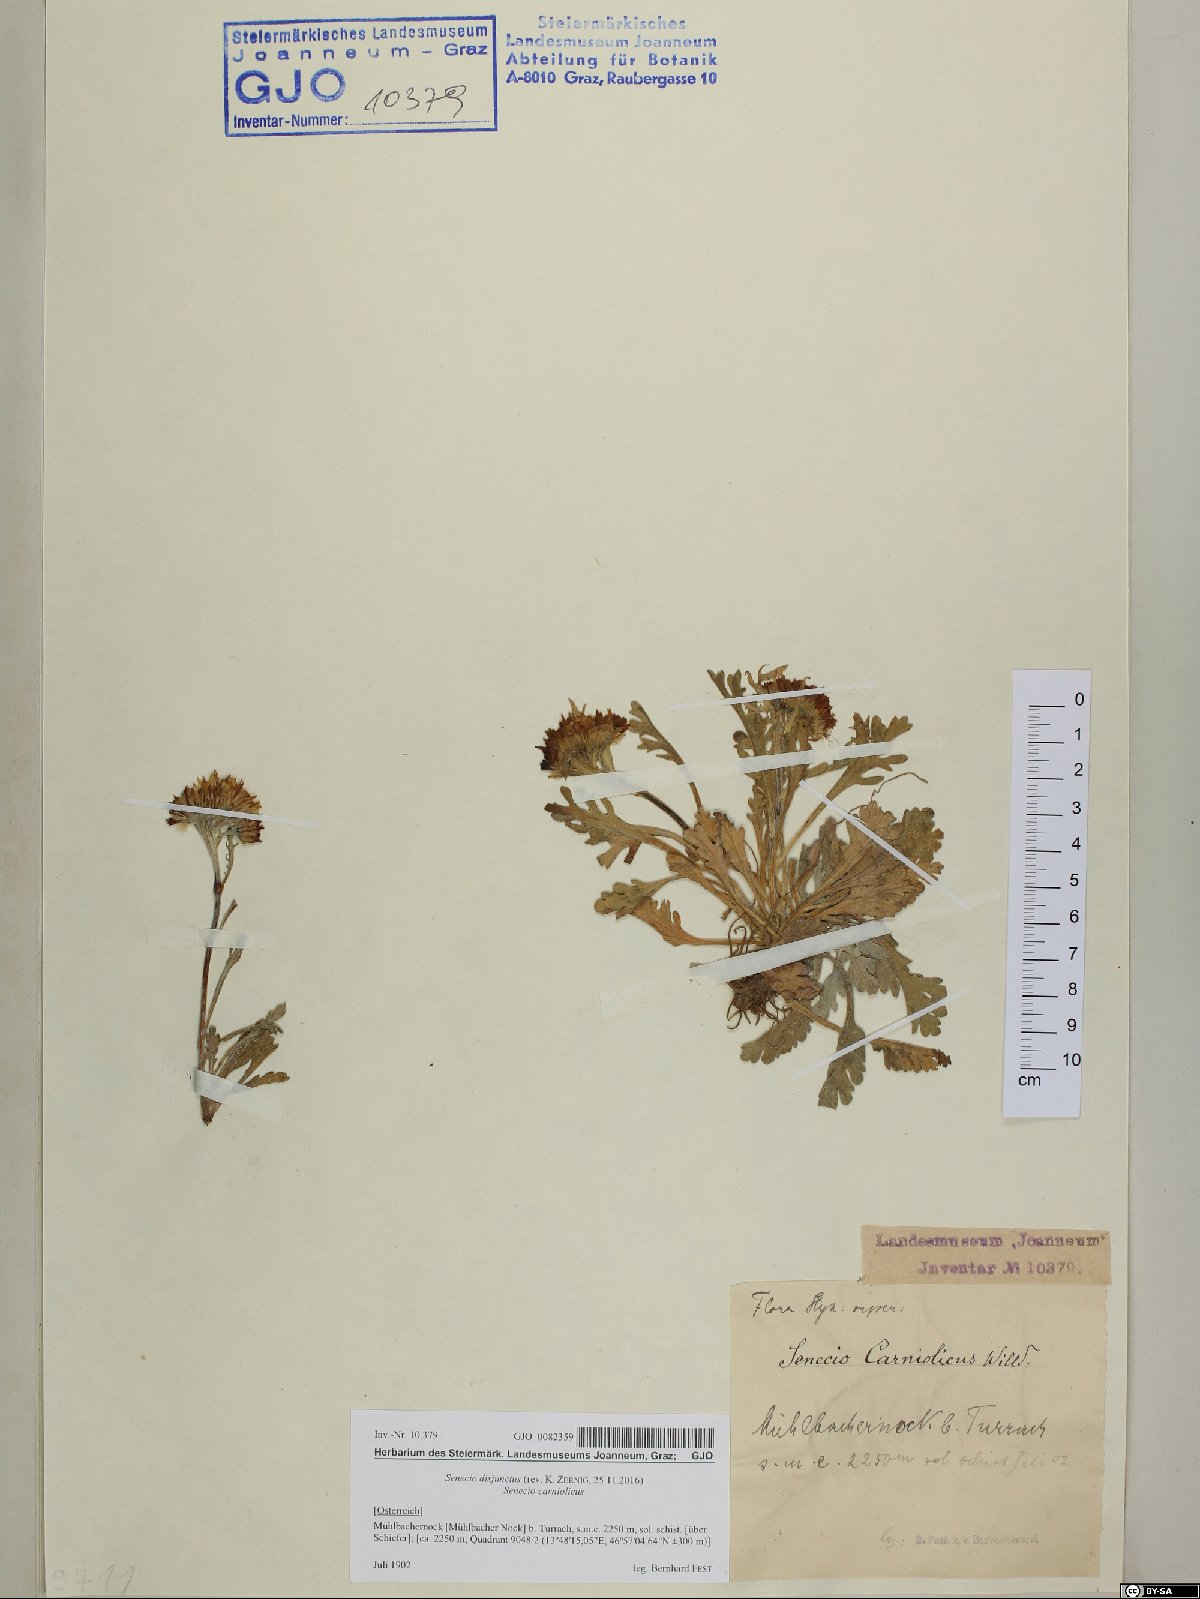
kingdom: Plantae
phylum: Tracheophyta
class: Magnoliopsida
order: Asterales
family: Asteraceae
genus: Jacobaea
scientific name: Jacobaea disjuncta
